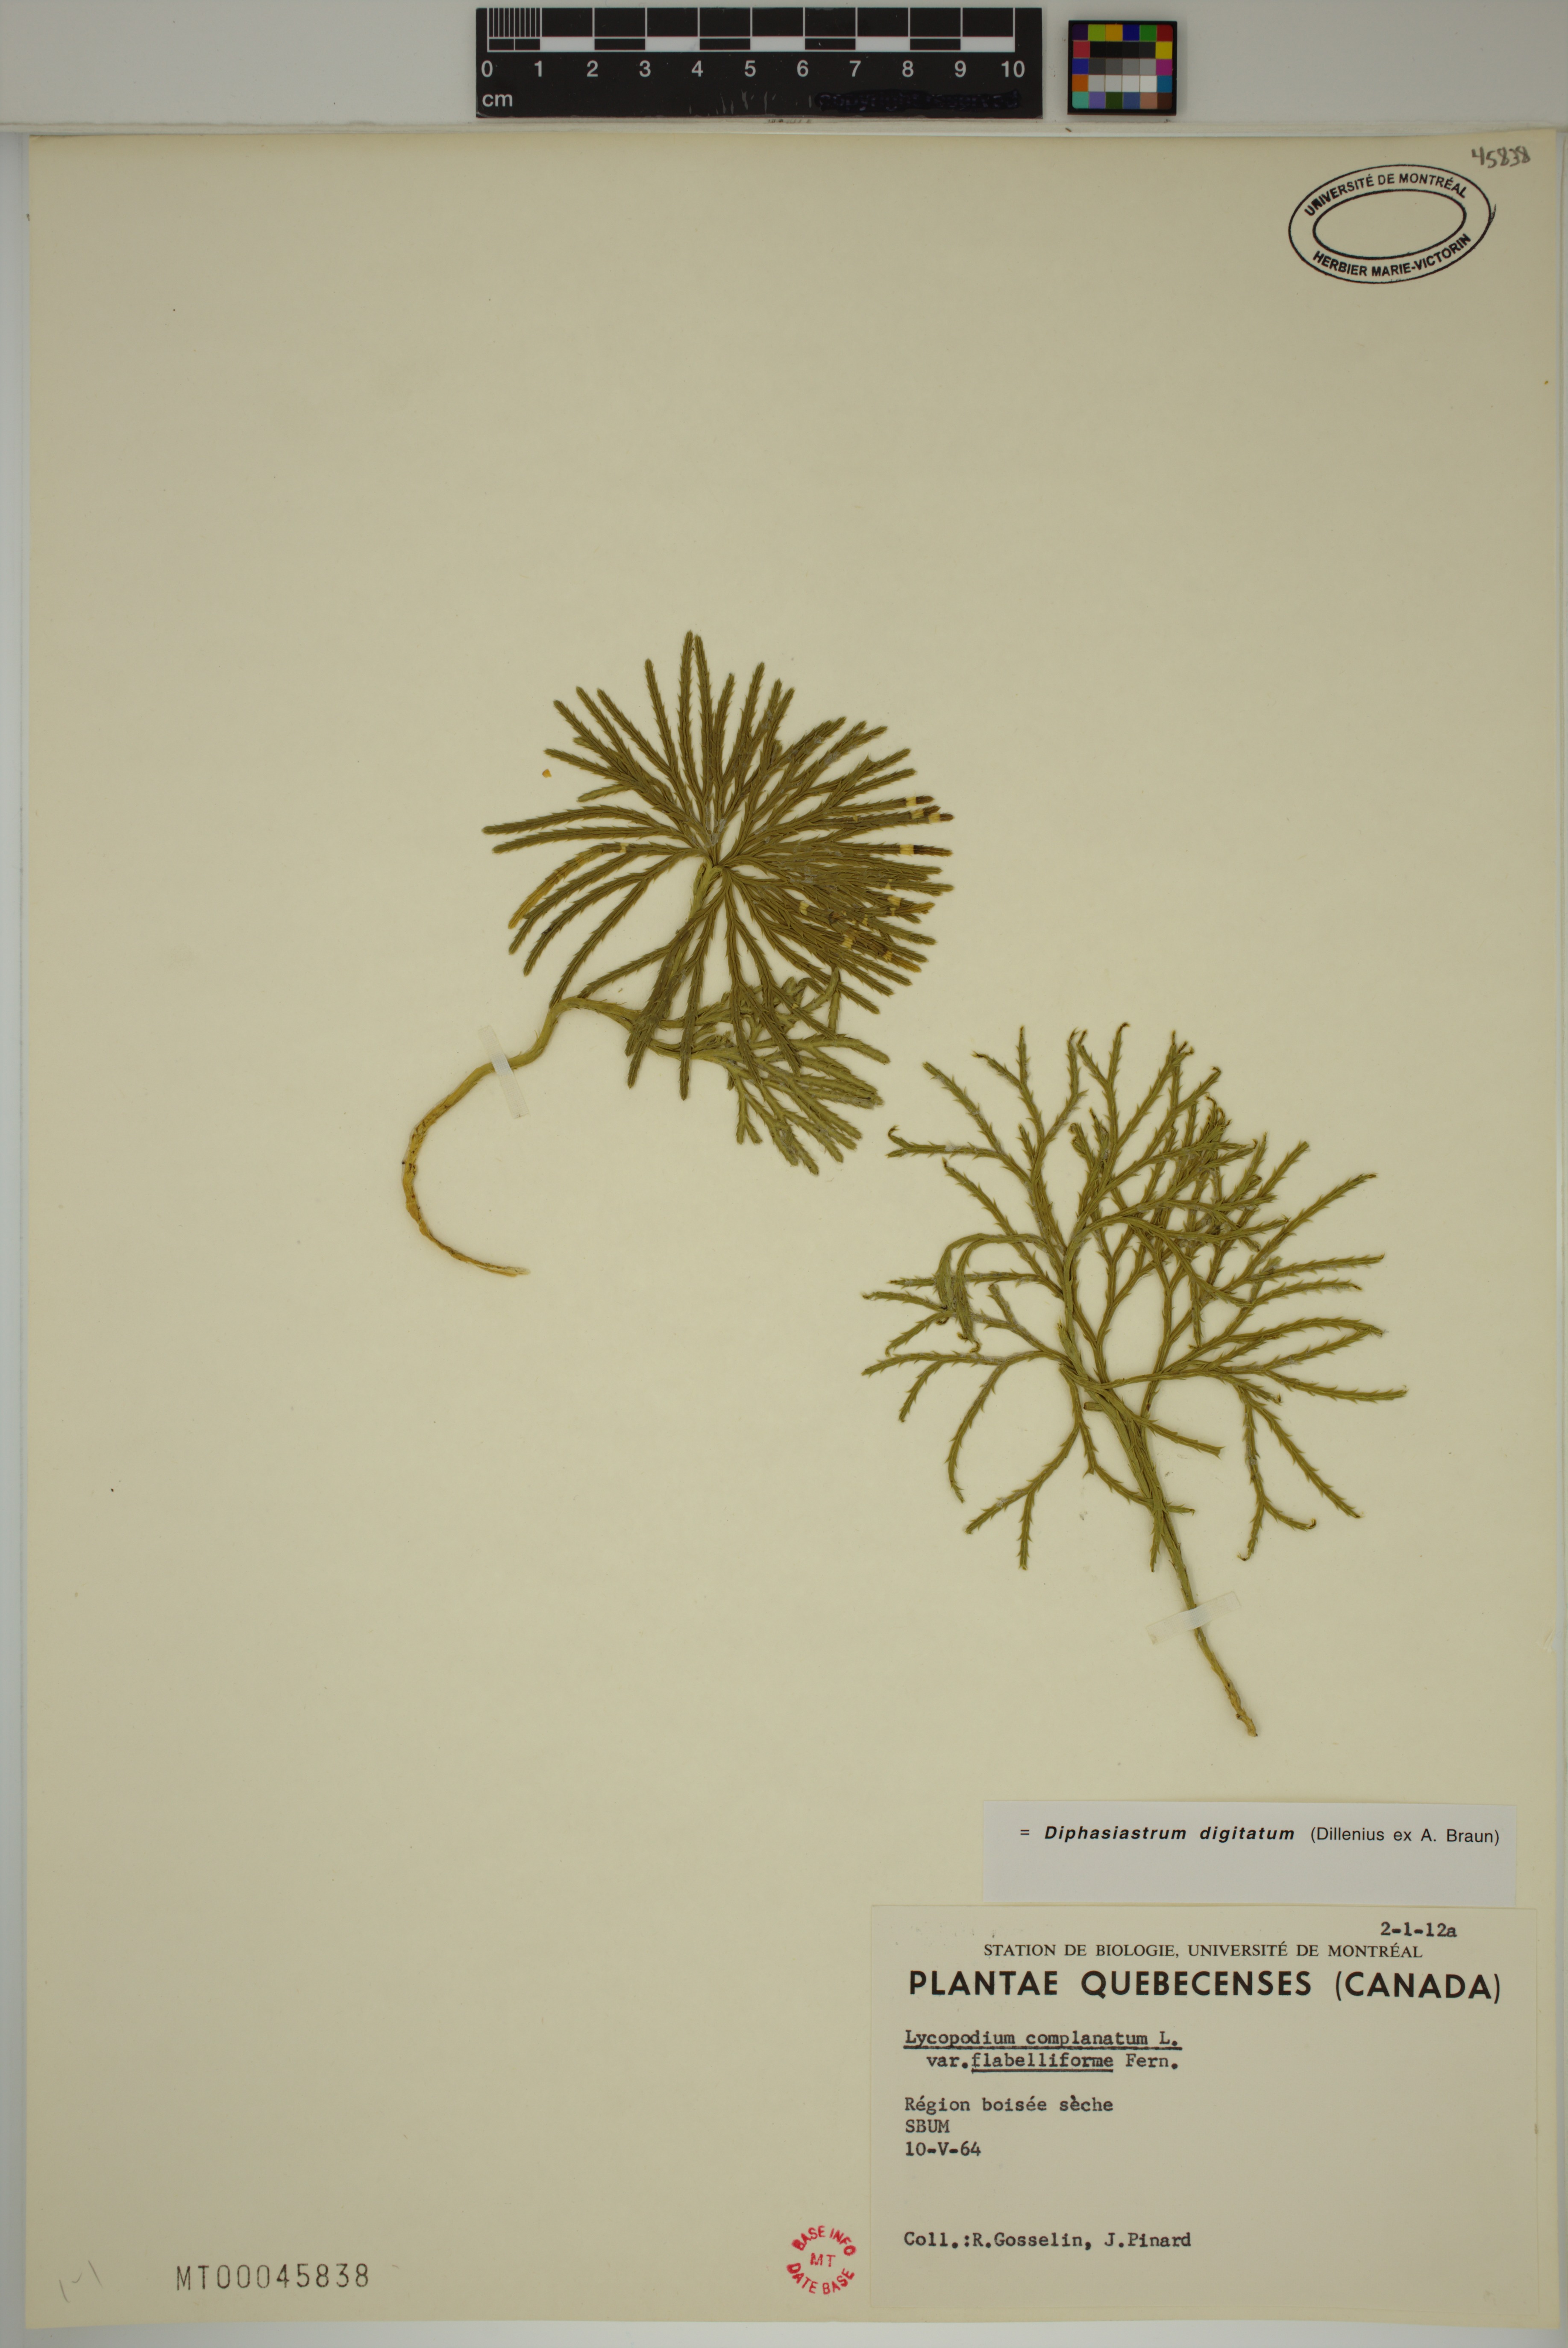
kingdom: Plantae
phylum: Tracheophyta
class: Lycopodiopsida
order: Lycopodiales
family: Lycopodiaceae
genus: Diphasiastrum
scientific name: Diphasiastrum digitatum
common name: Southern running-pine
